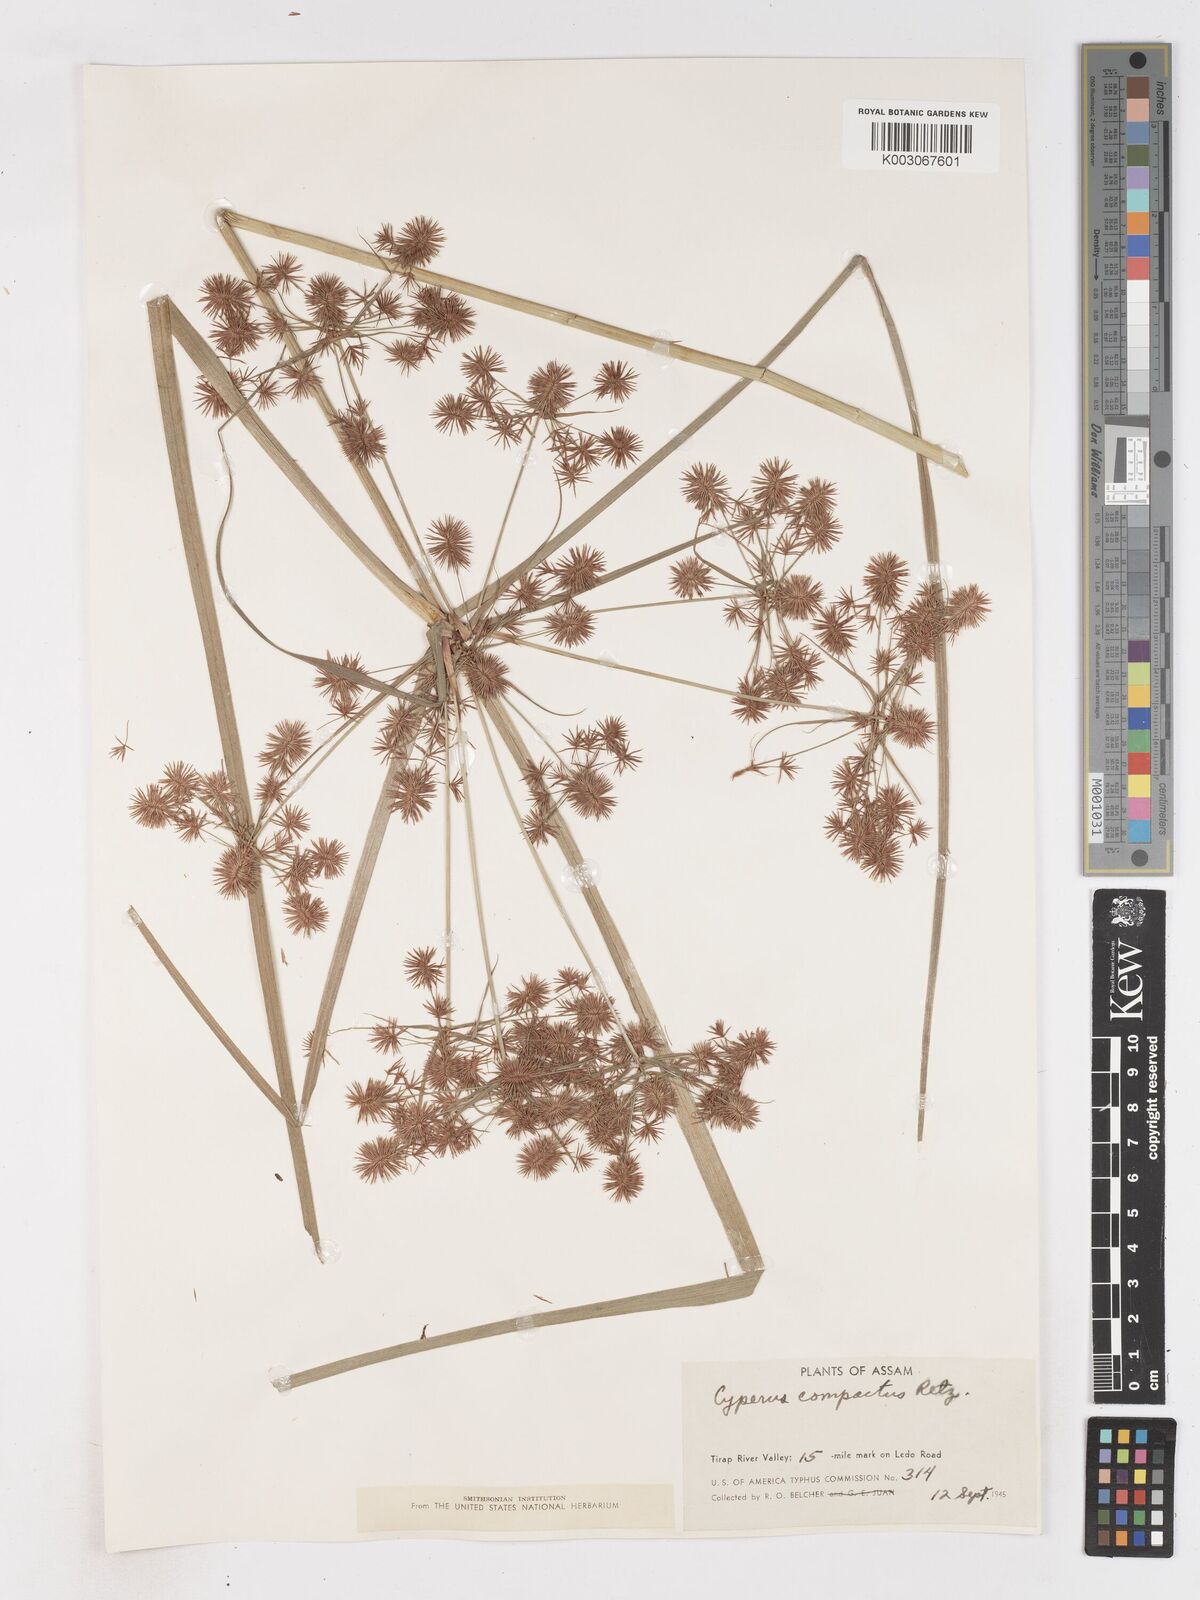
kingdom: Plantae
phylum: Tracheophyta
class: Liliopsida
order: Poales
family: Cyperaceae
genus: Cyperus
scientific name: Cyperus compactus
